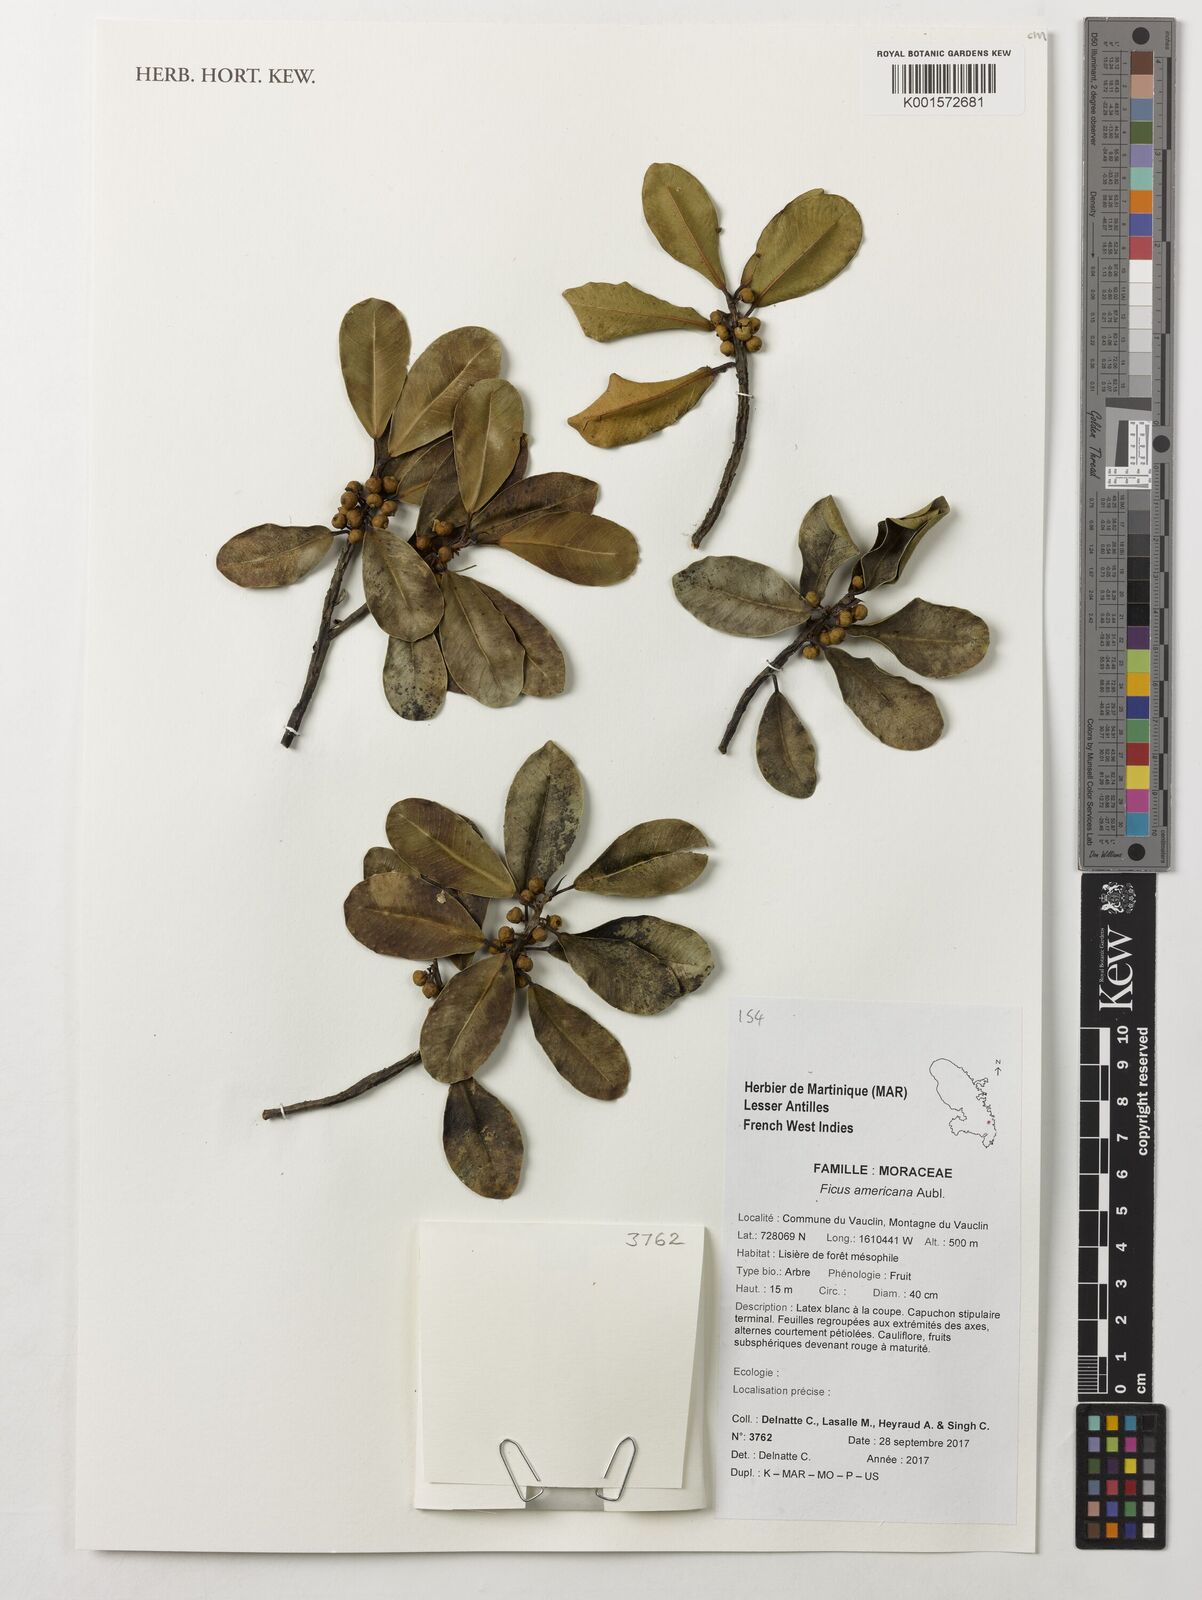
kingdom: Plantae
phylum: Tracheophyta
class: Magnoliopsida
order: Rosales
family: Moraceae
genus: Ficus
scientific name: Ficus americana
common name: Jamaican cherry fig
